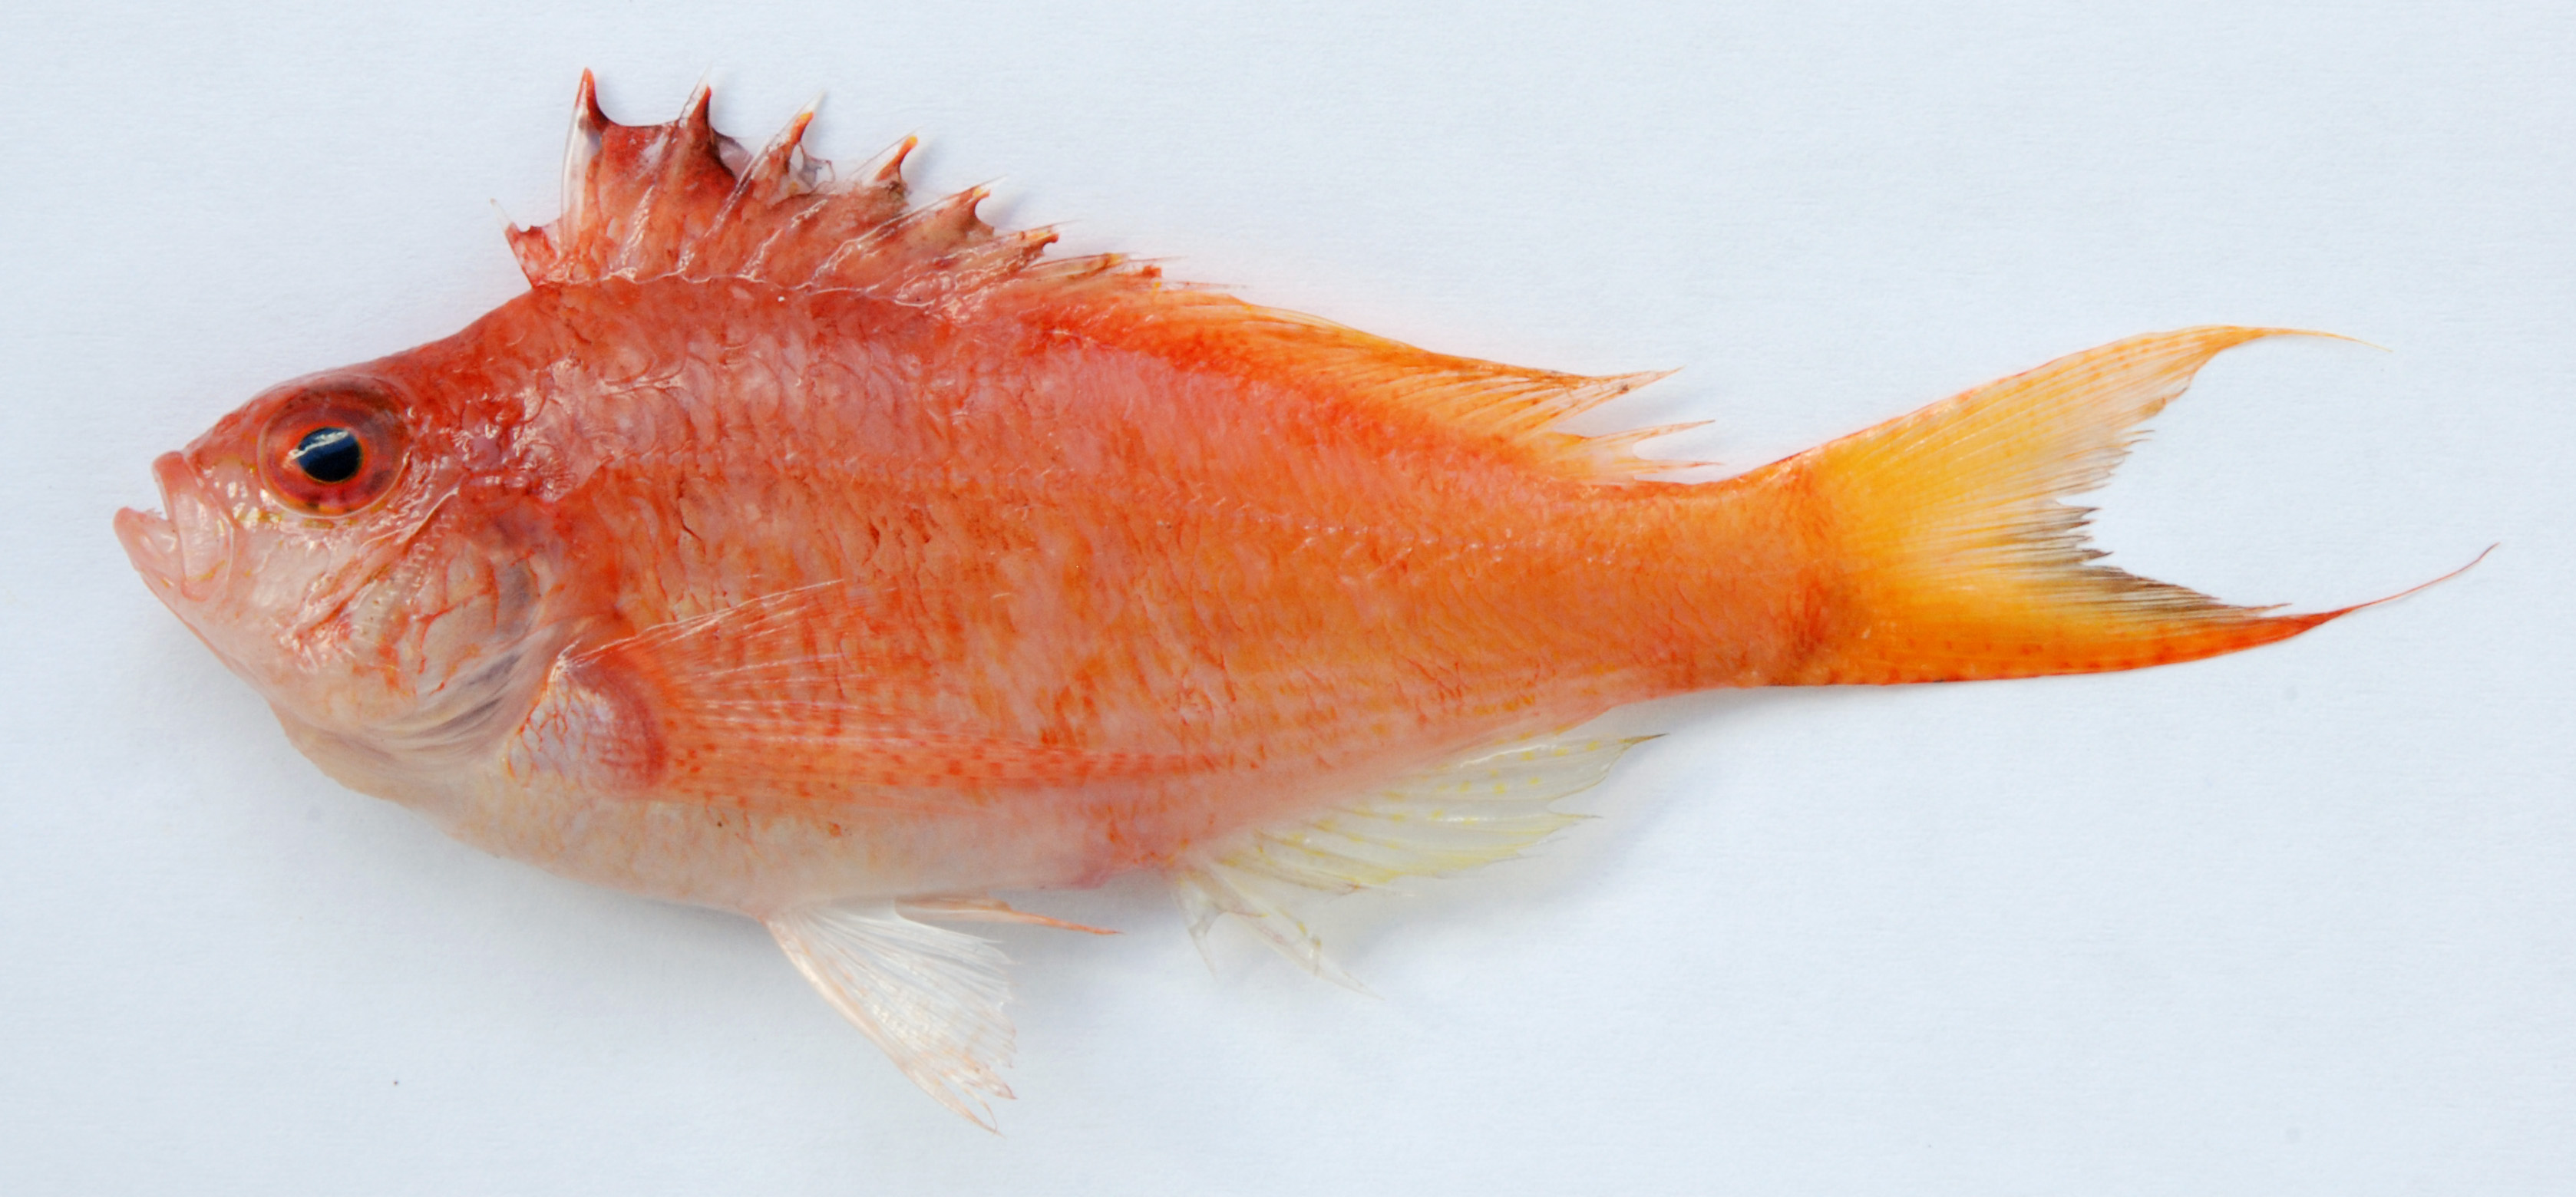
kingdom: Animalia
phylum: Chordata
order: Perciformes
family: Cirrhitidae
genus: Cyprinocirrhites
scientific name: Cyprinocirrhites polyactis
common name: Swallowtail hawkfish
